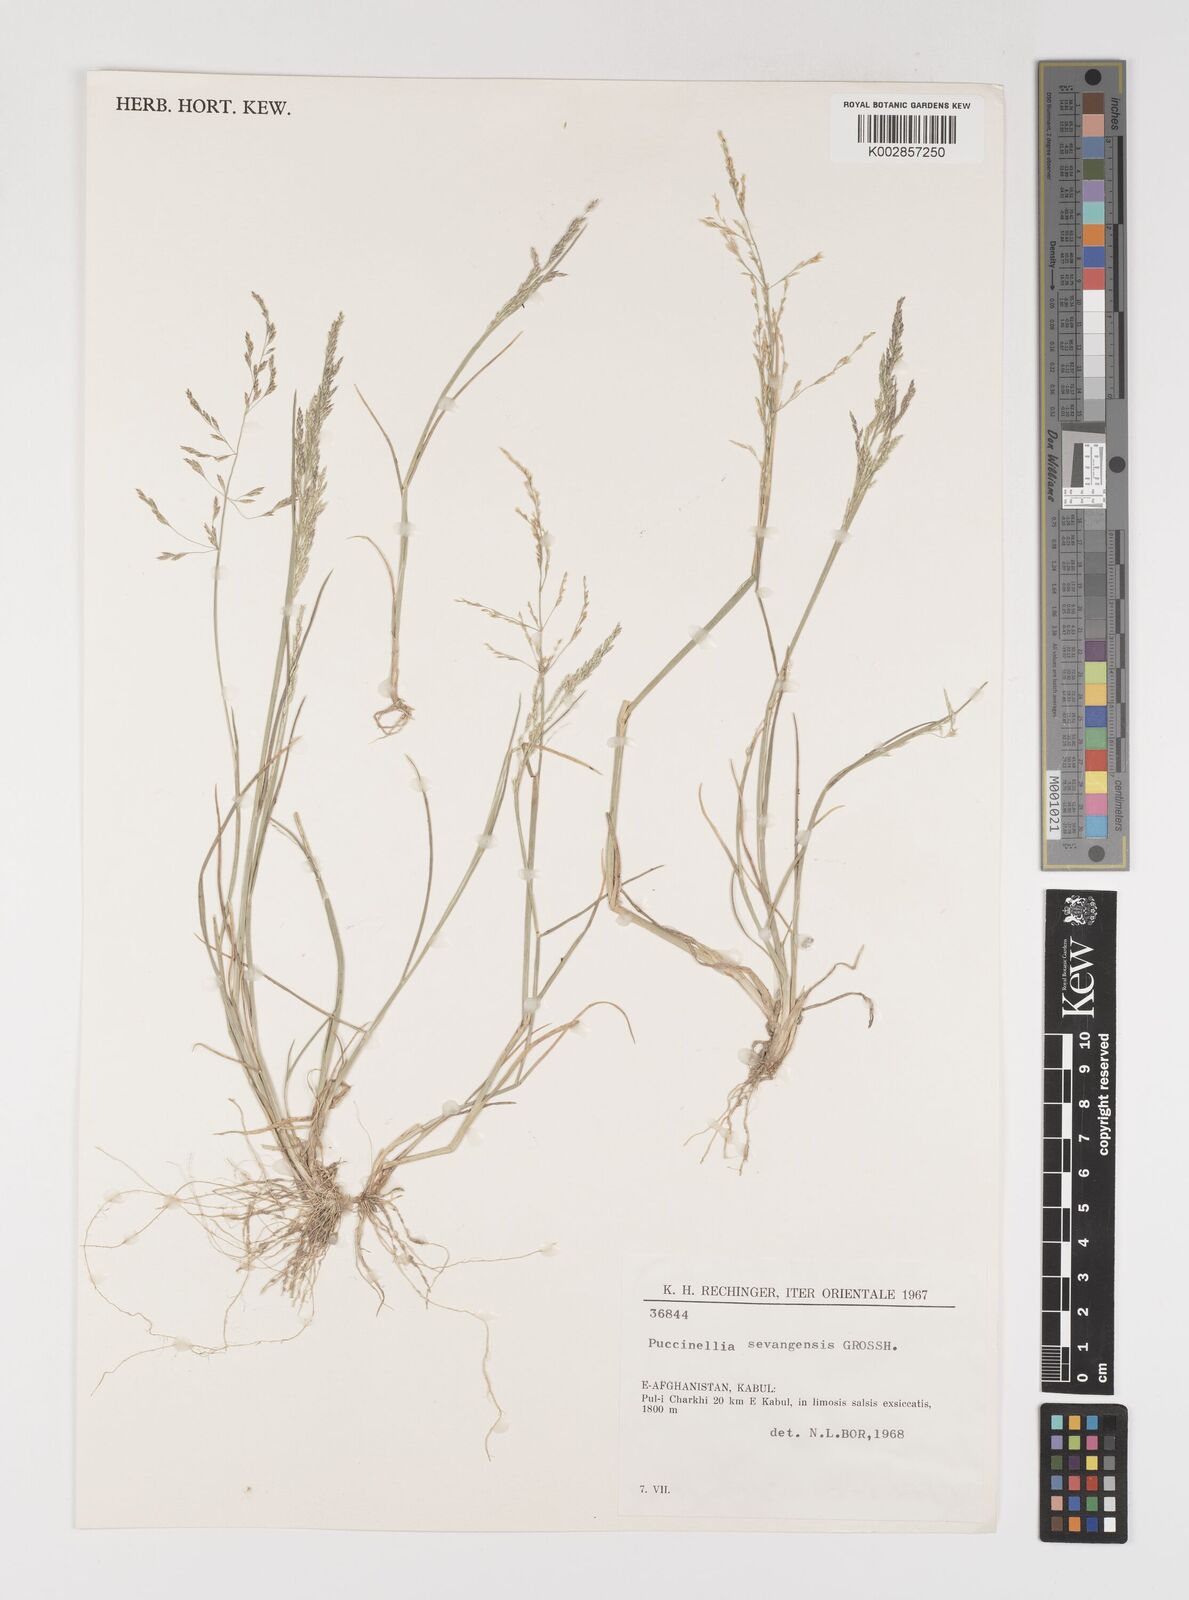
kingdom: Plantae
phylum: Tracheophyta
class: Liliopsida
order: Poales
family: Poaceae
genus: Puccinellia
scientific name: Puccinellia distans
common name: Weeping alkaligrass
